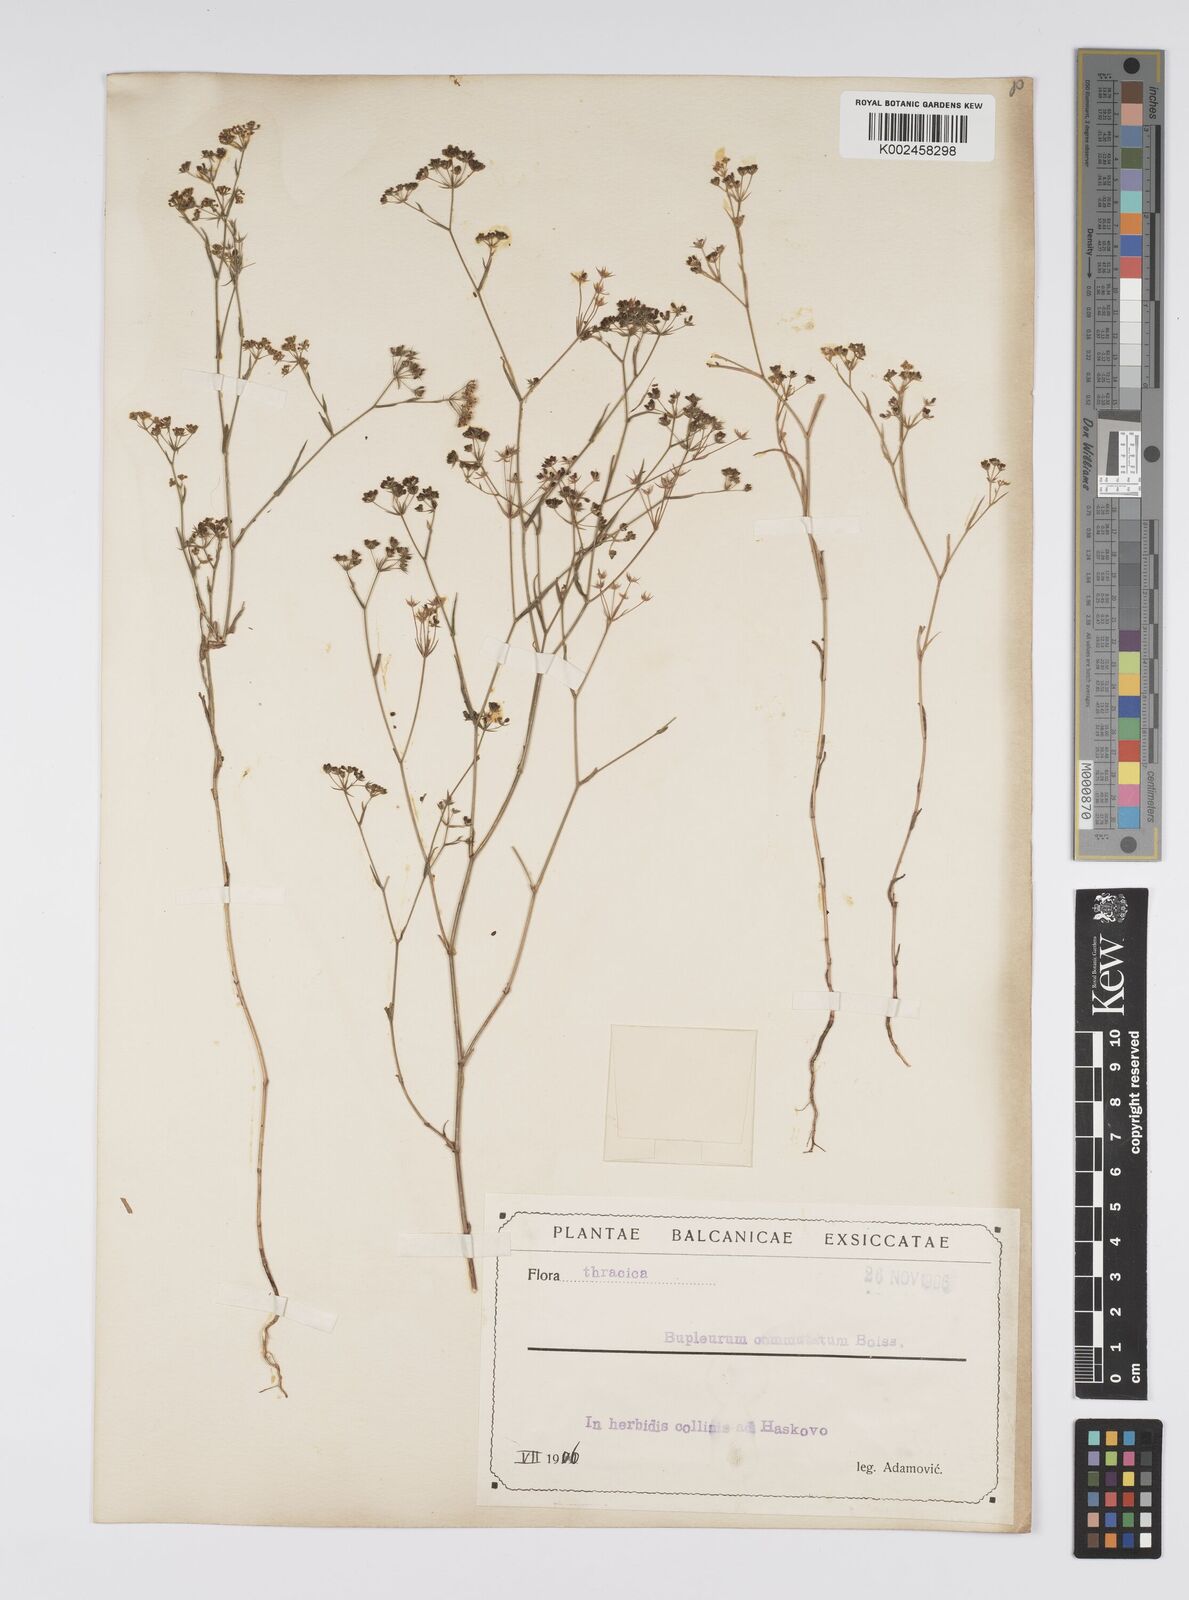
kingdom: Plantae
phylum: Tracheophyta
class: Magnoliopsida
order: Apiales
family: Apiaceae
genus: Bupleurum
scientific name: Bupleurum commutatum
